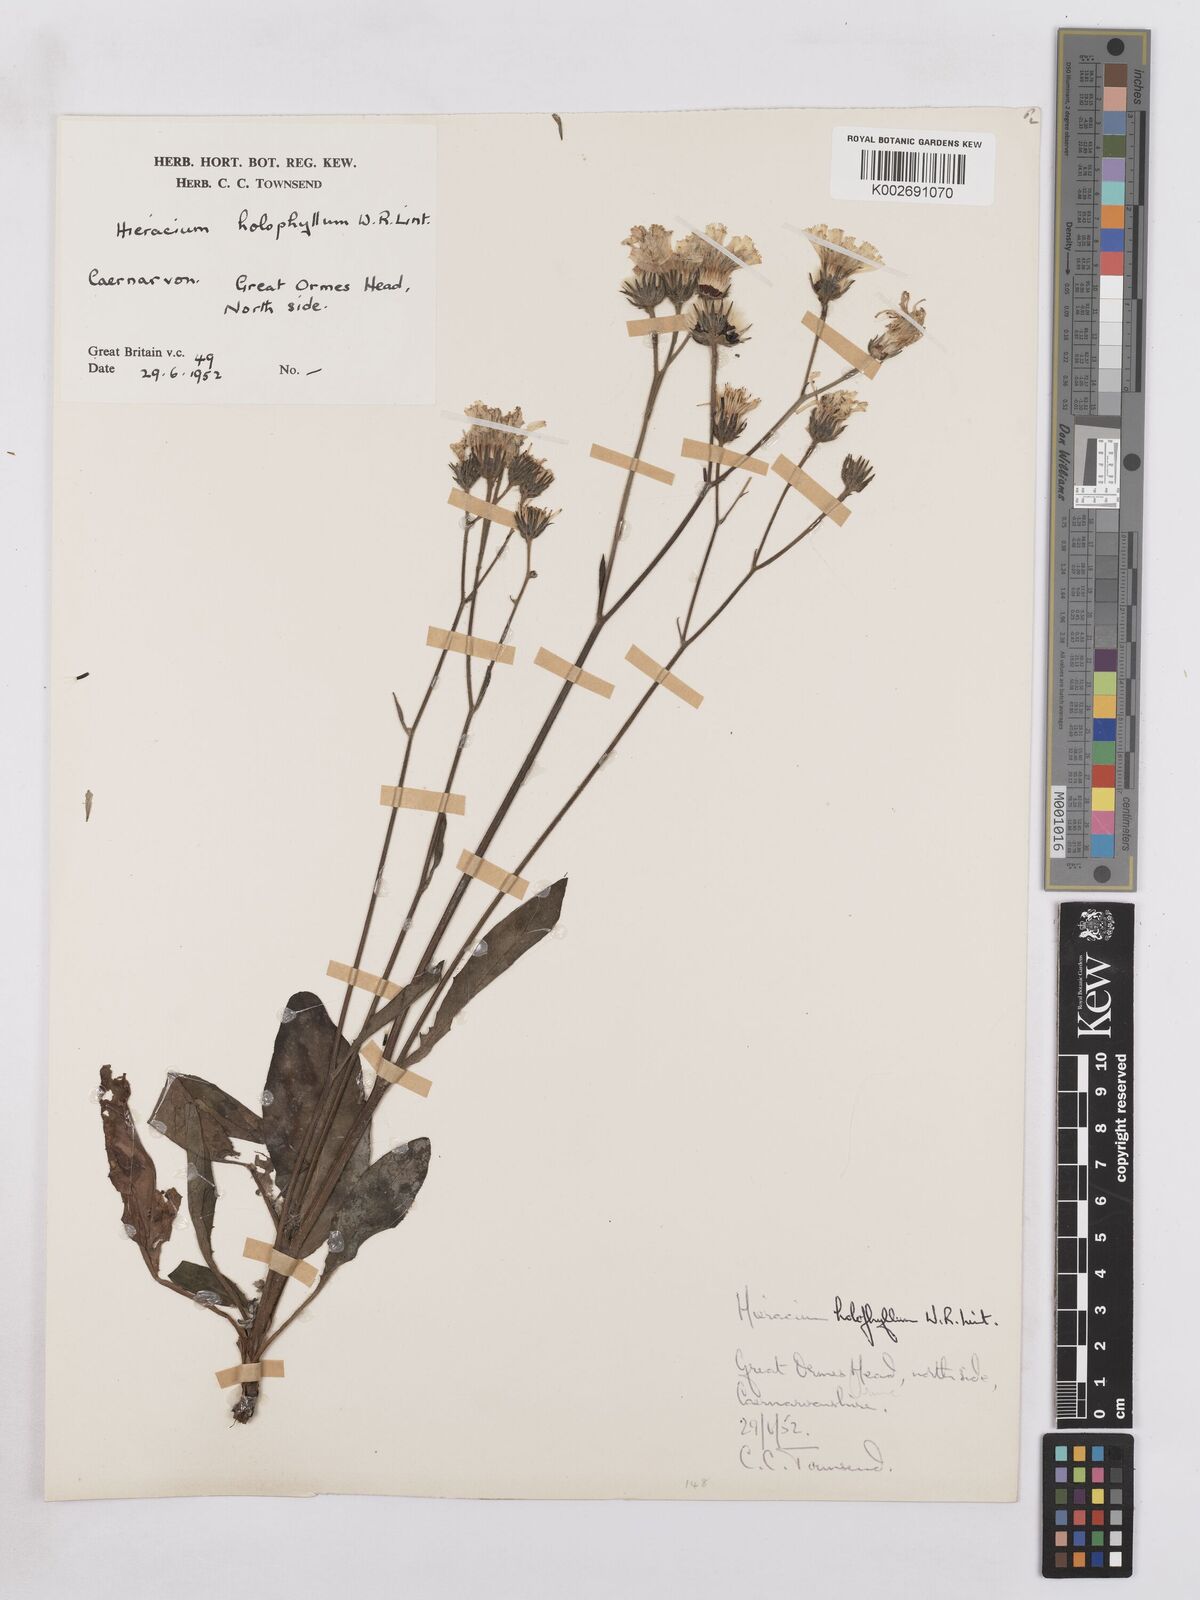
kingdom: Plantae
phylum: Tracheophyta
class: Magnoliopsida
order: Asterales
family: Asteraceae
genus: Hieracium
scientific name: Hieracium holophyllum
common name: Undivided-leaved hawkweed
